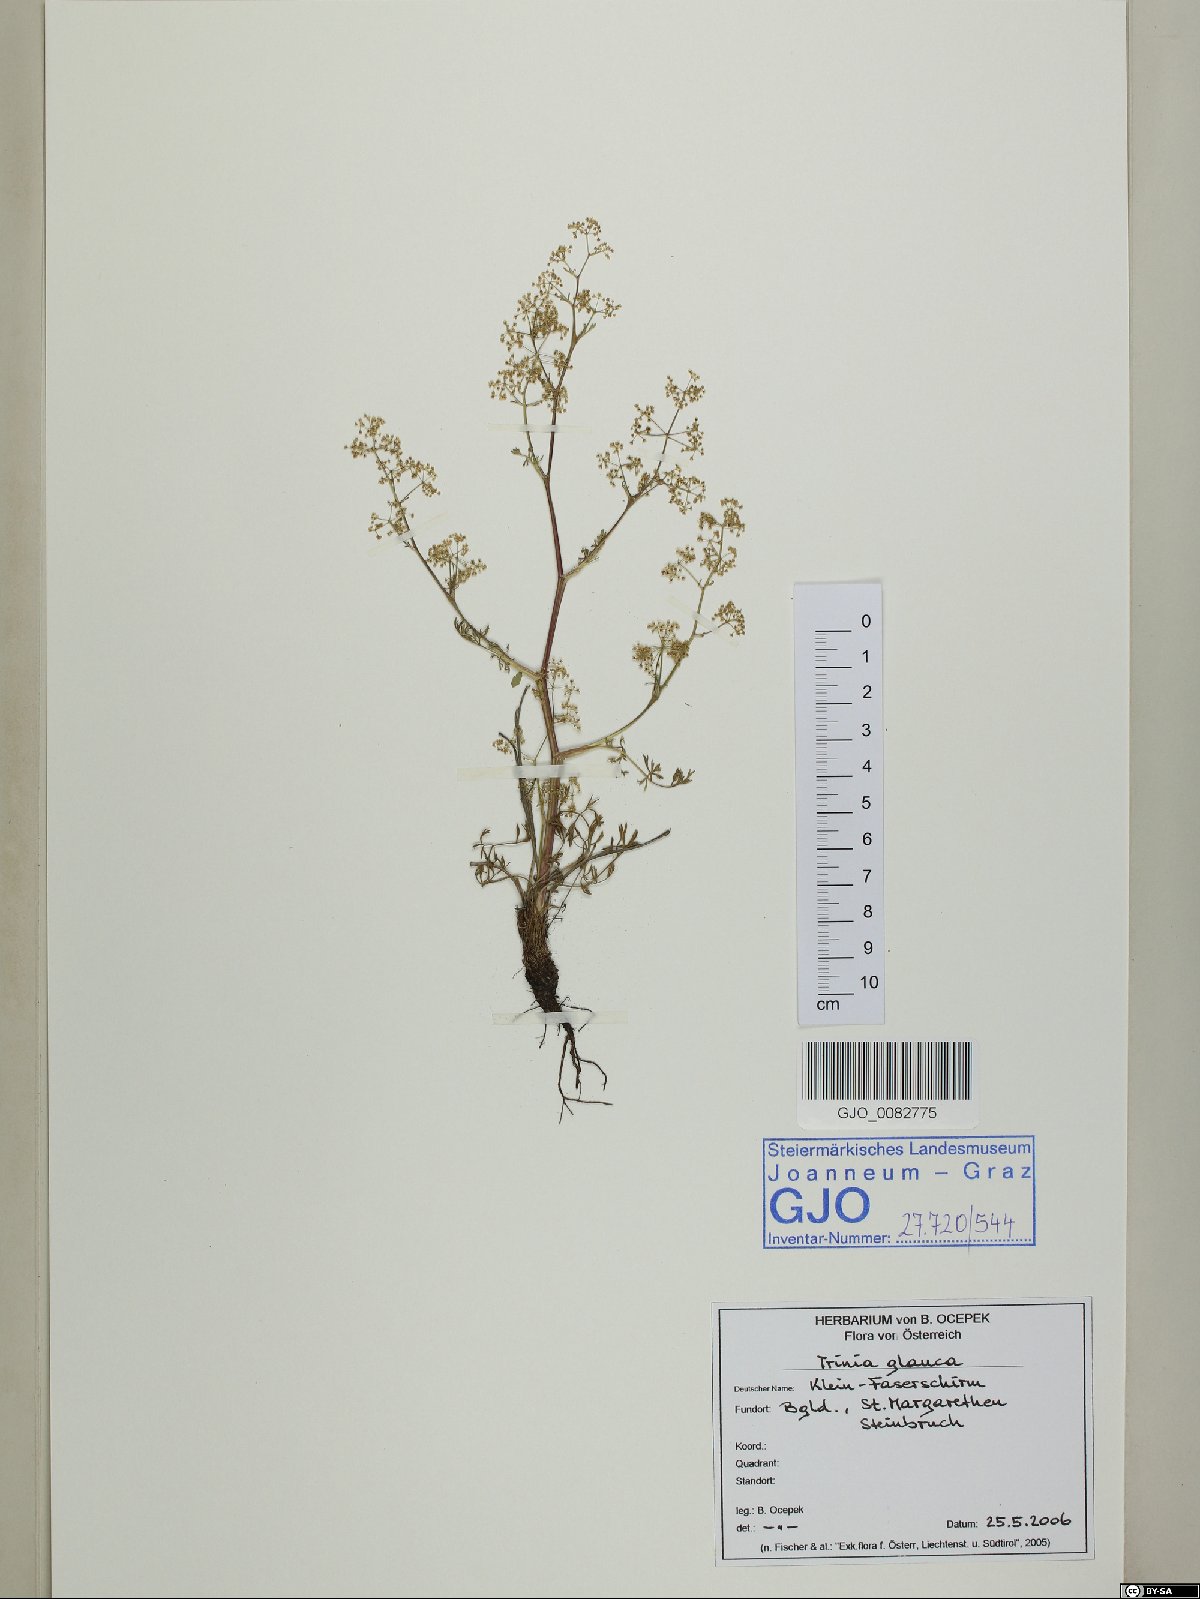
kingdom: Plantae
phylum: Tracheophyta
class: Magnoliopsida
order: Apiales
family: Apiaceae
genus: Trinia
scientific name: Trinia glauca
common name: Honewort
